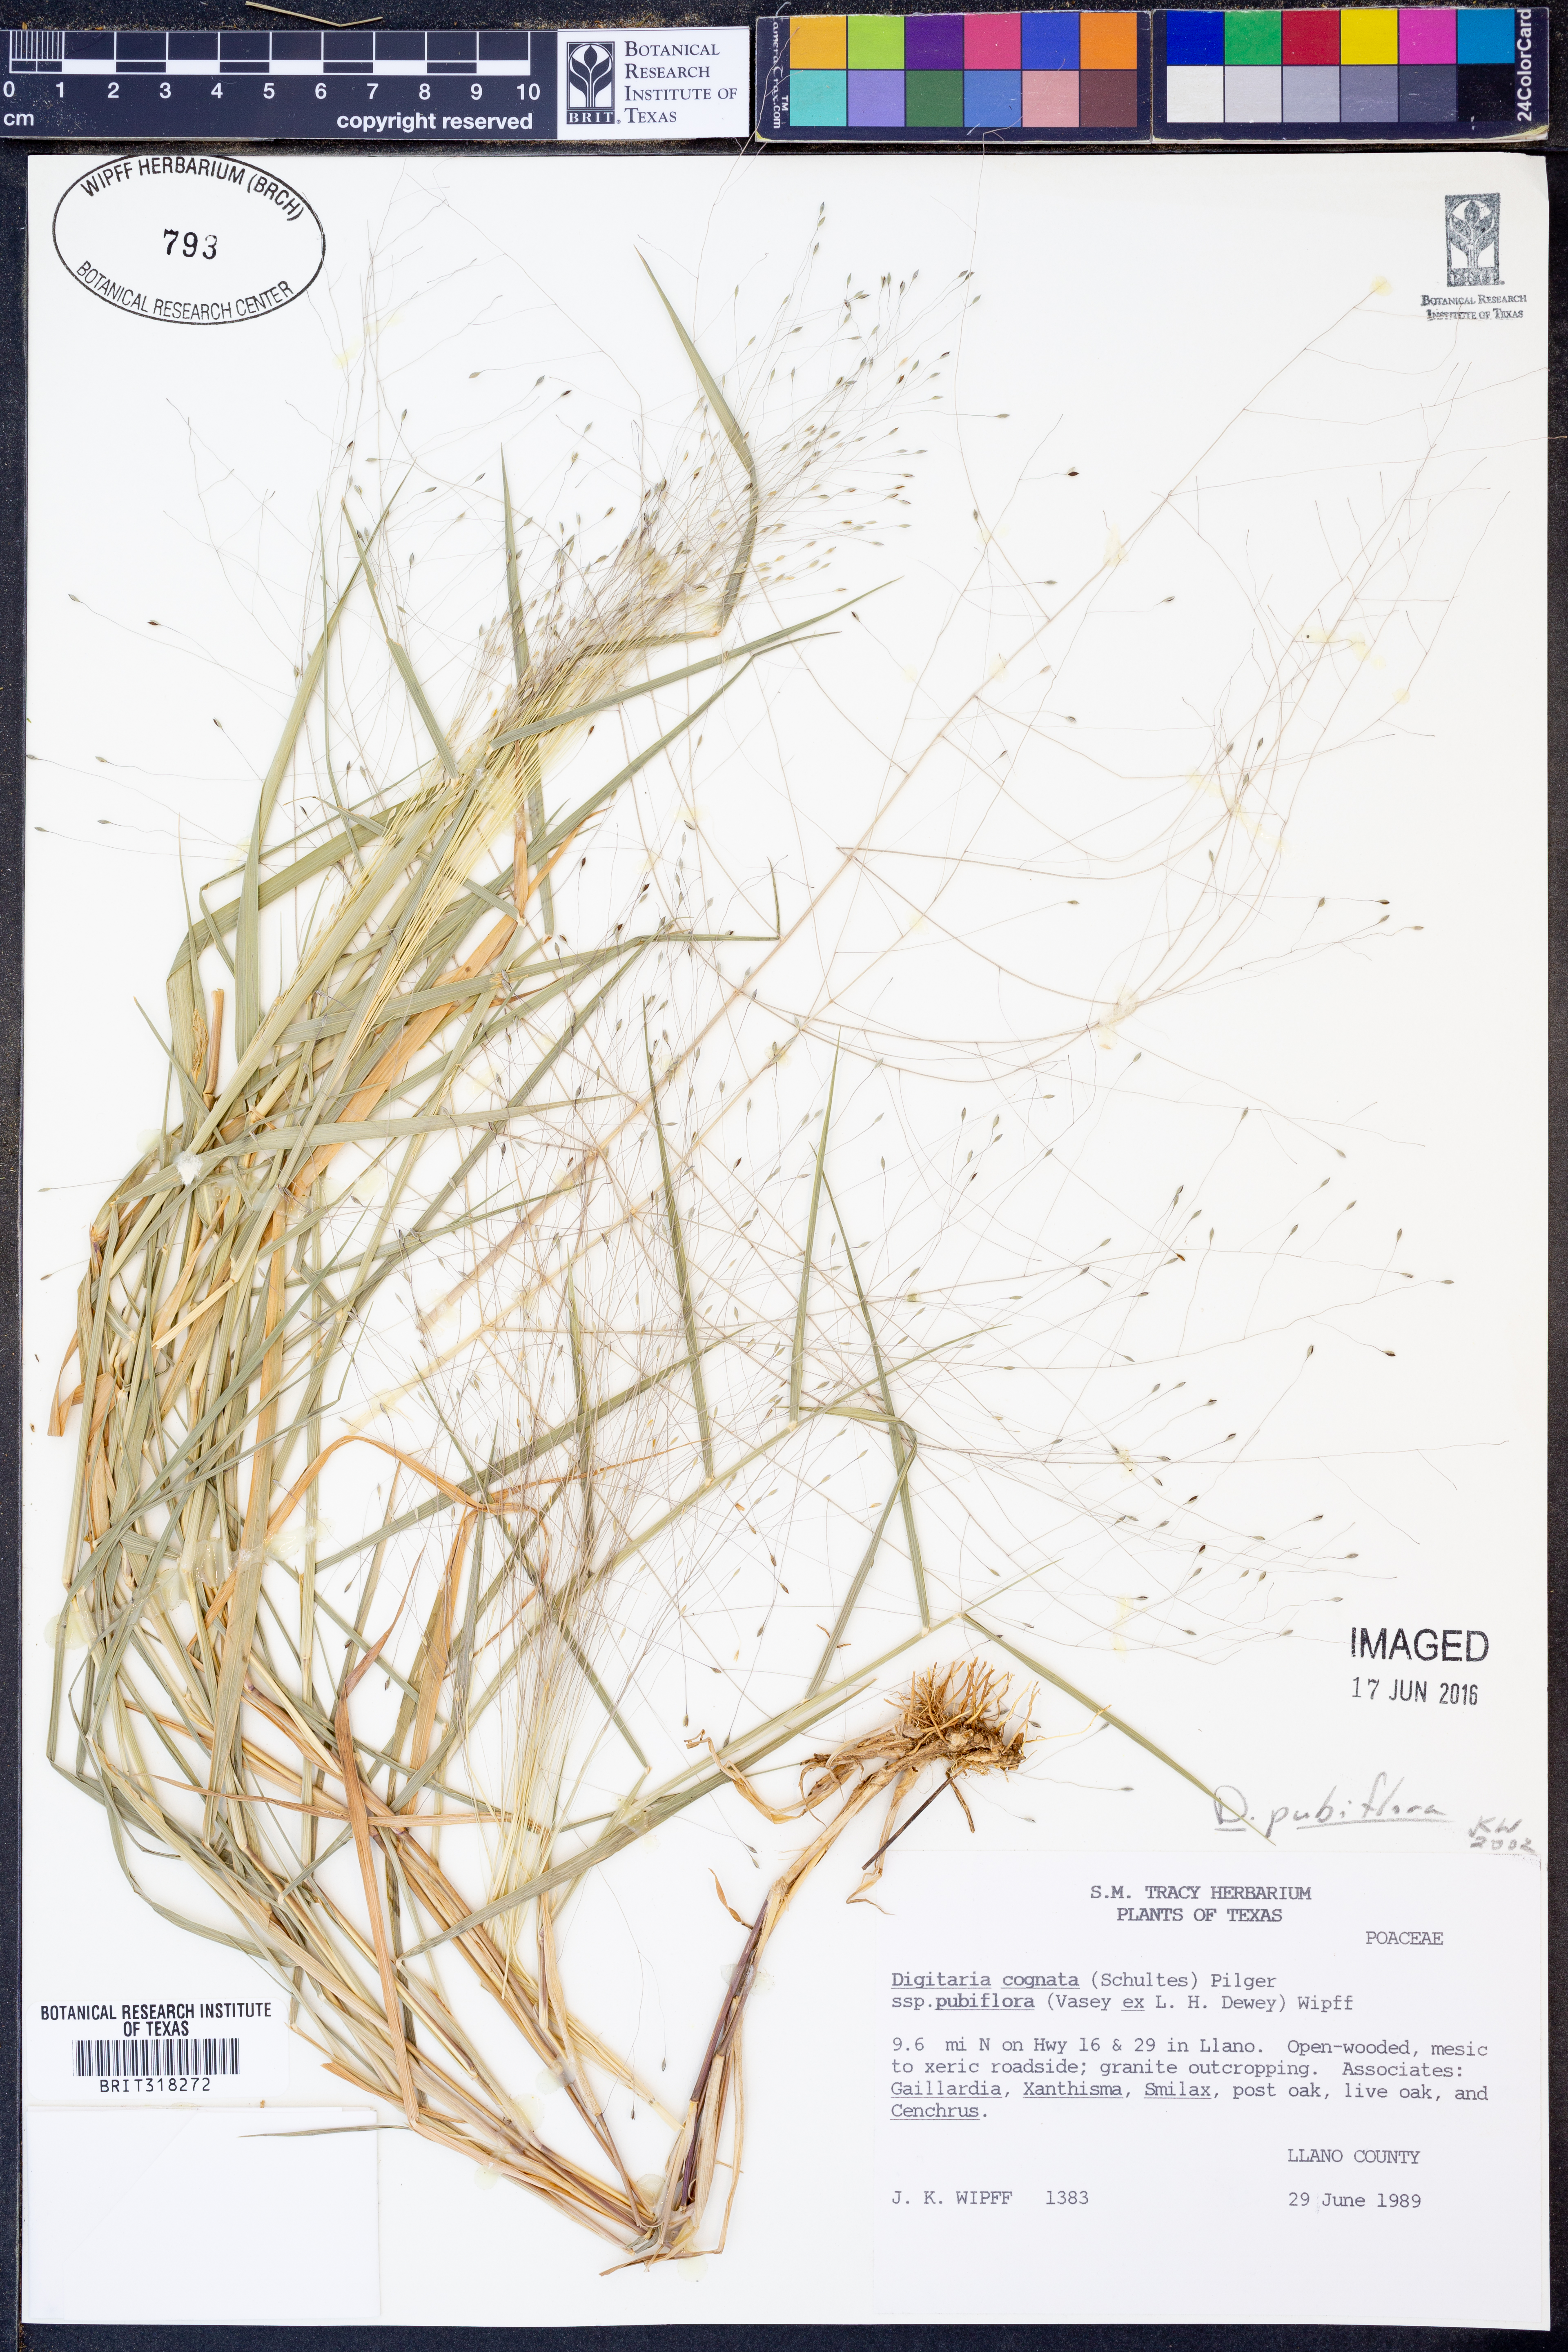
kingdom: Plantae
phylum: Tracheophyta
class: Liliopsida
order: Poales
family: Poaceae
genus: Digitaria
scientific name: Digitaria pubiflora
